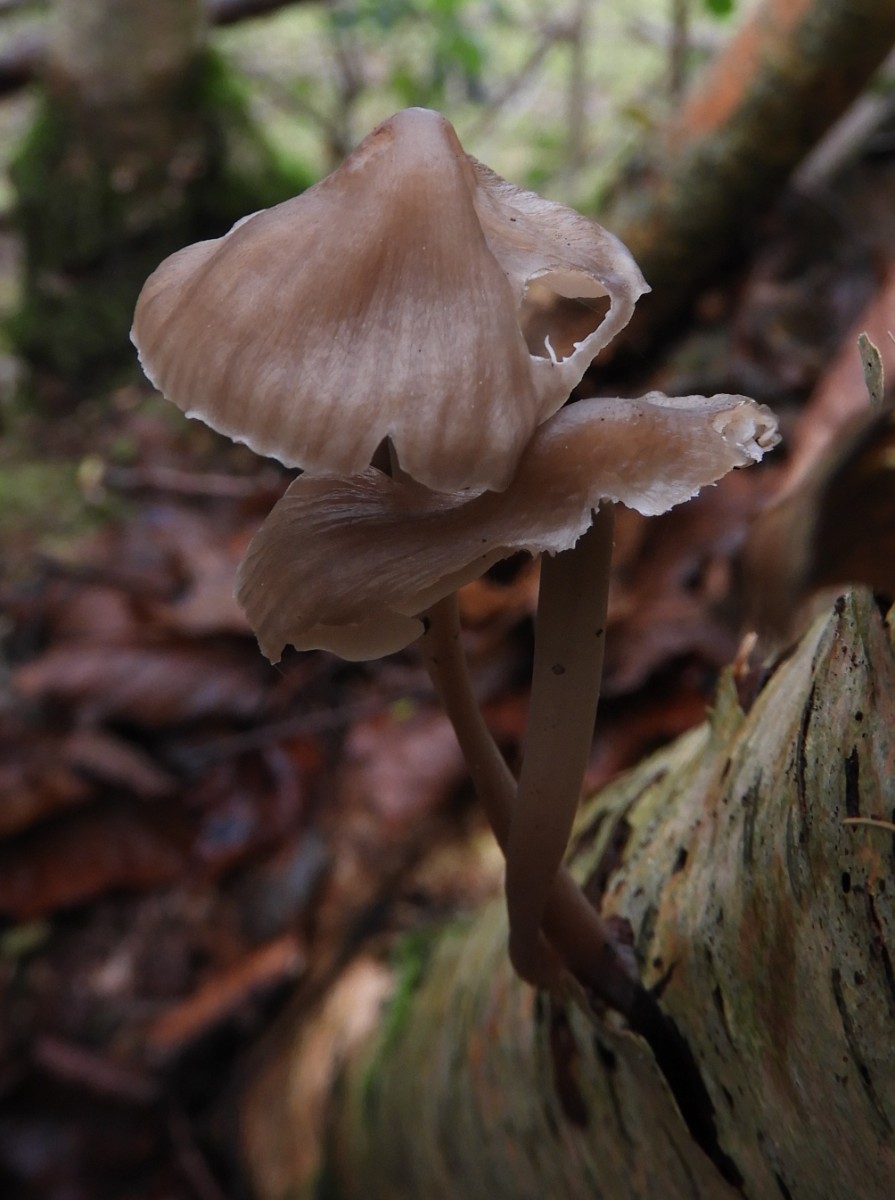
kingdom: Fungi
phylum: Basidiomycota
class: Agaricomycetes
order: Agaricales
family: Mycenaceae
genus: Mycena
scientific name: Mycena galericulata
